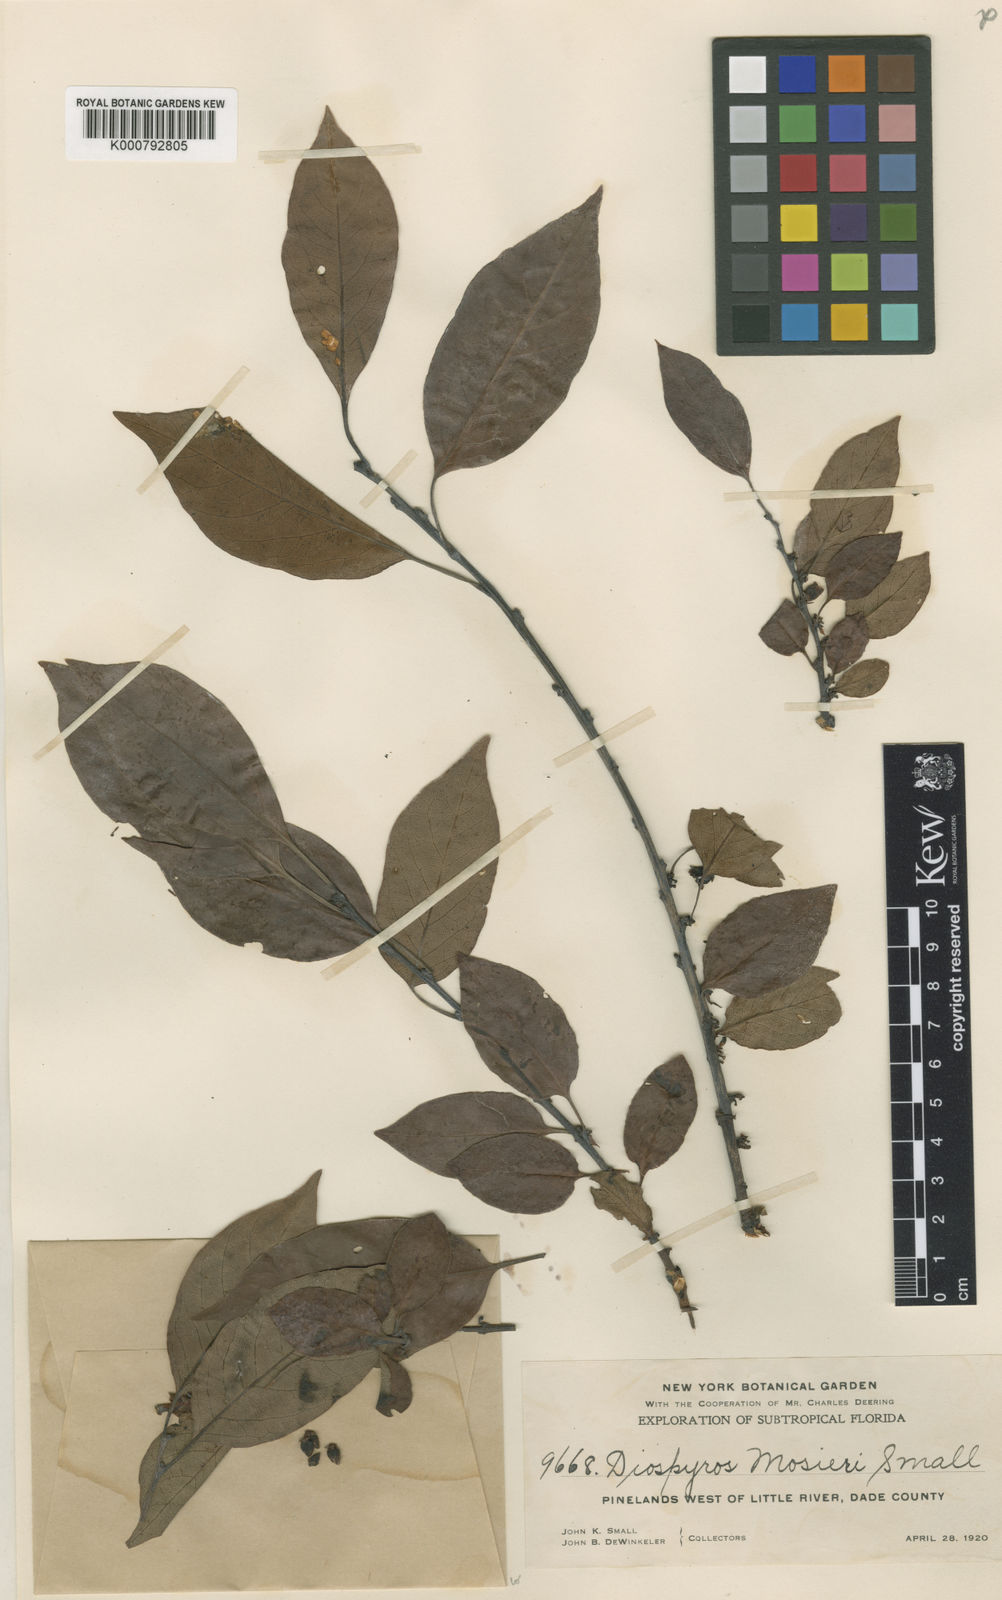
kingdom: Plantae
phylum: Tracheophyta
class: Magnoliopsida
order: Ericales
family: Ebenaceae
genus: Diospyros
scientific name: Diospyros virginiana
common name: Persimmon
